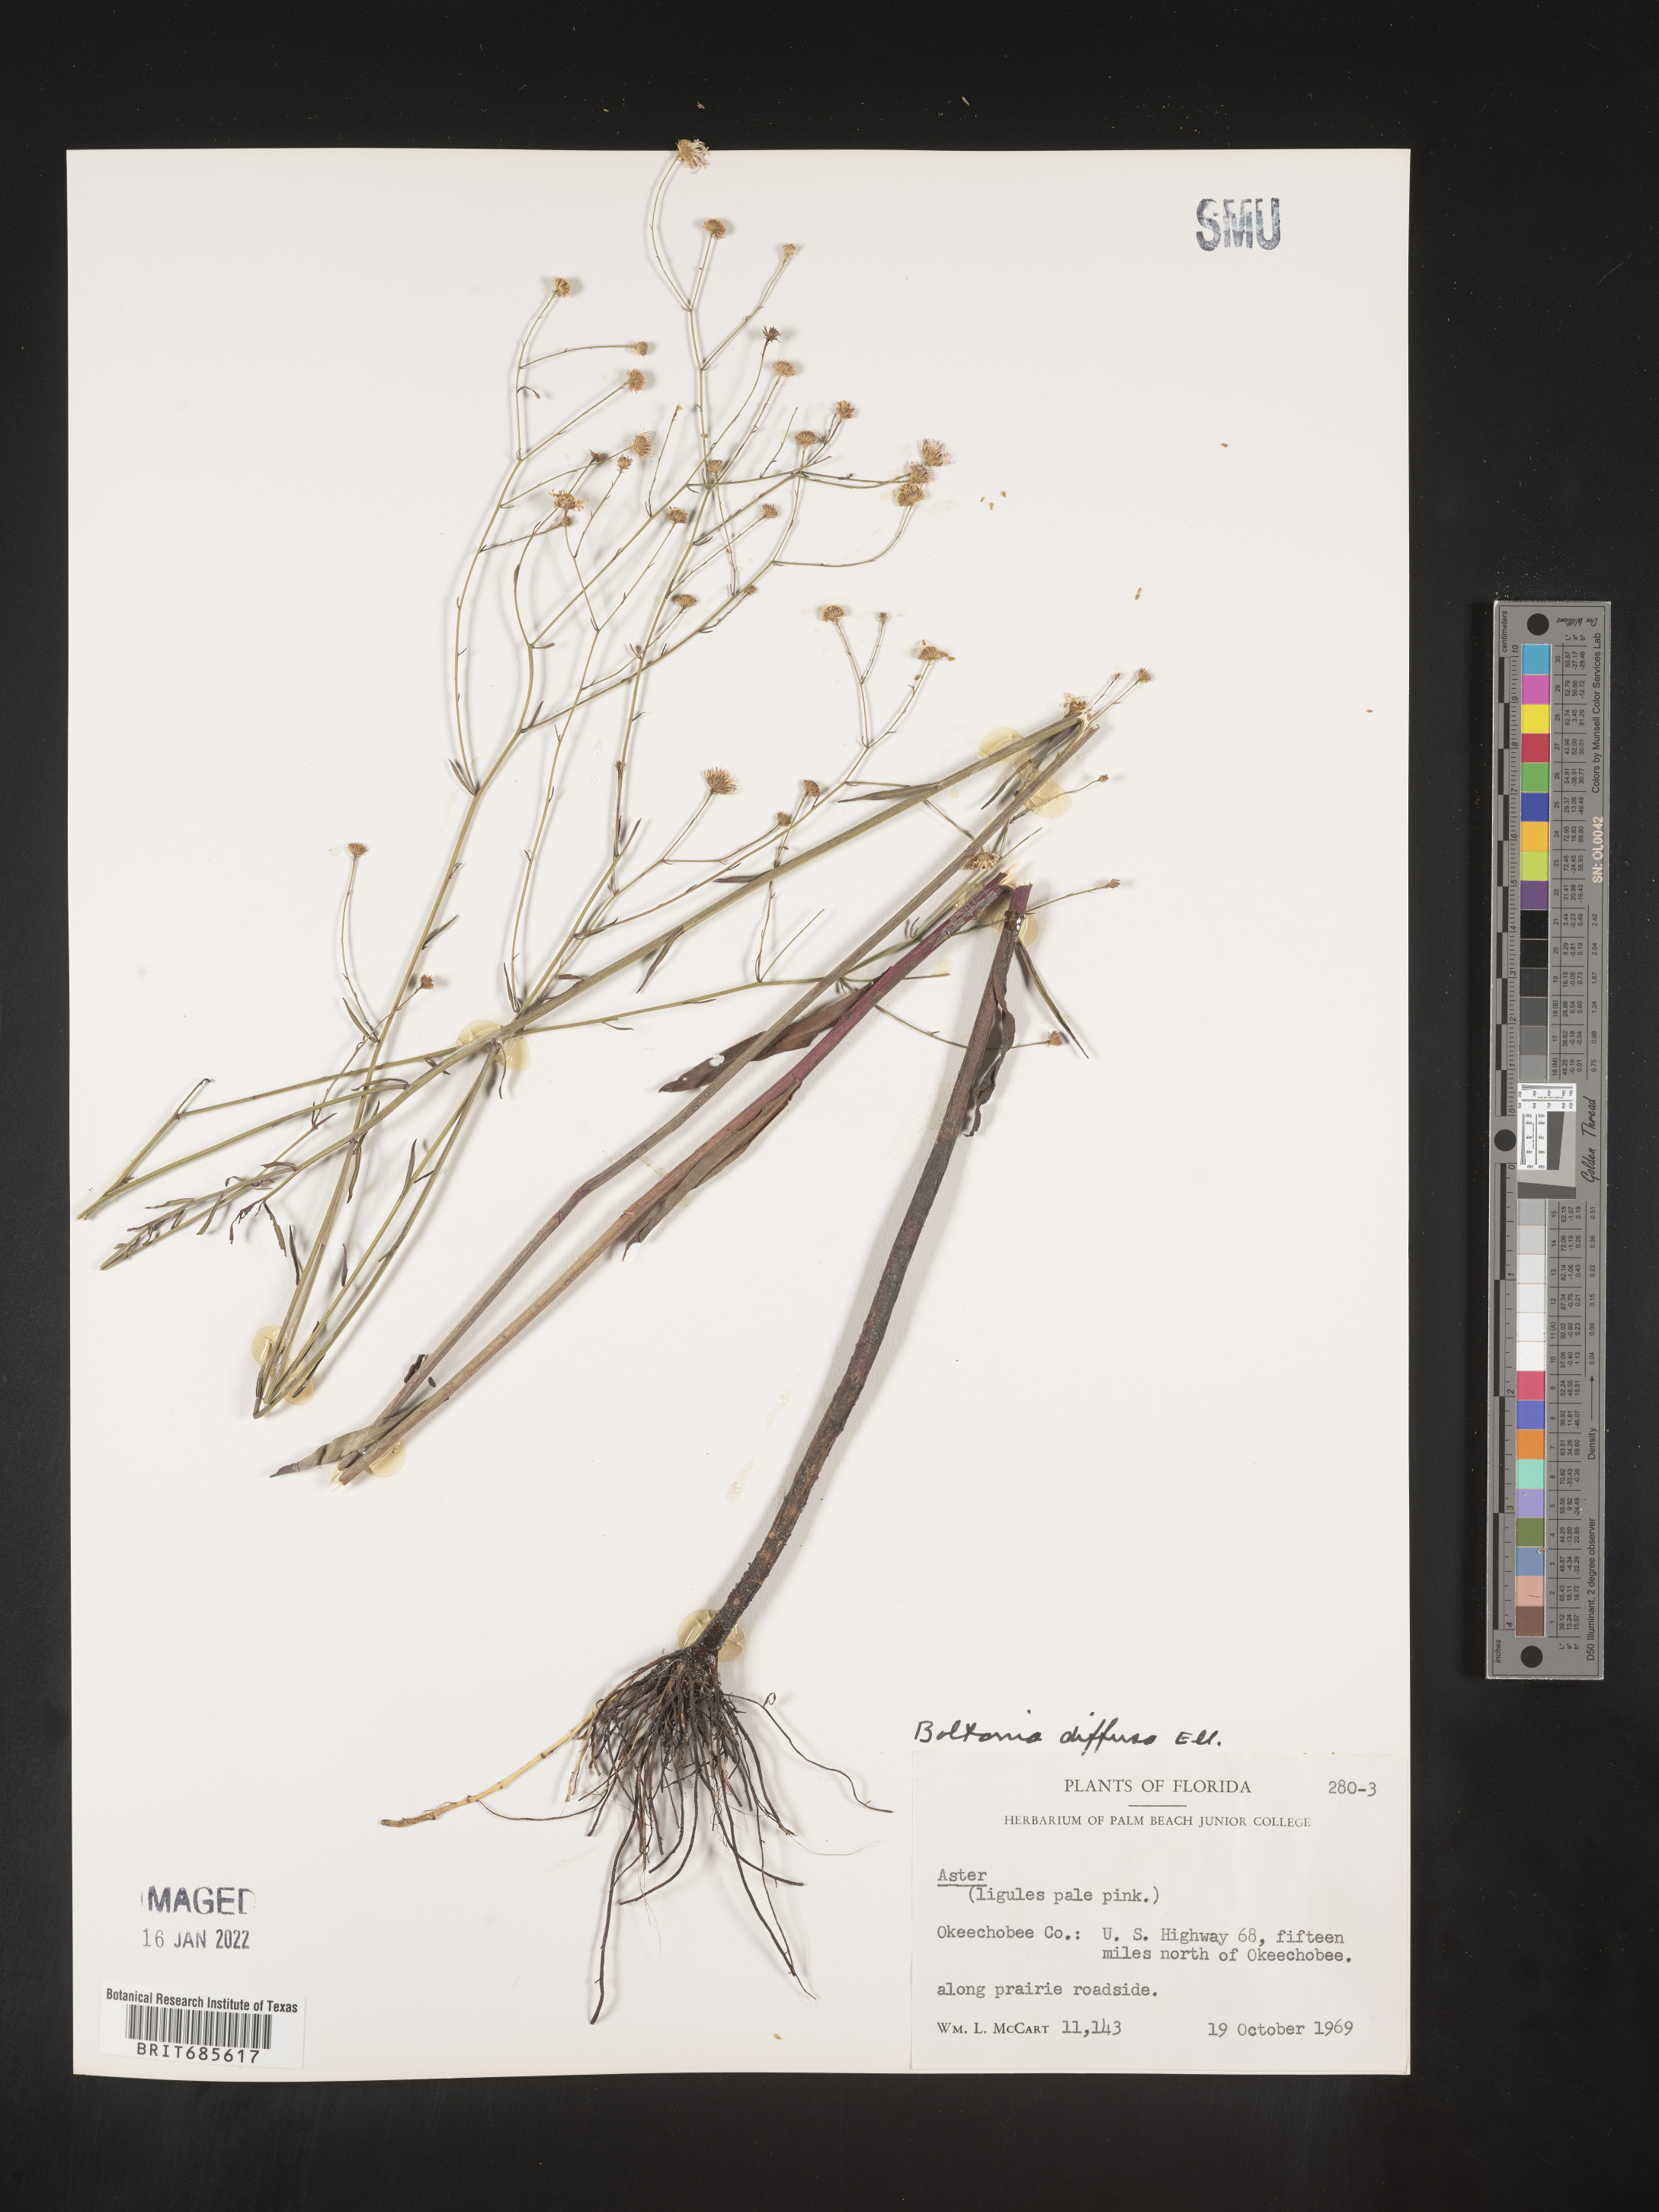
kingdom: Plantae
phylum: Tracheophyta
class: Magnoliopsida
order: Asterales
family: Asteraceae
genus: Boltonia
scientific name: Boltonia diffusa
